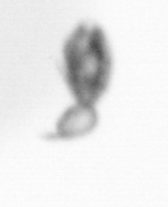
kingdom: Animalia
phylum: Arthropoda
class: Copepoda
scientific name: Copepoda
